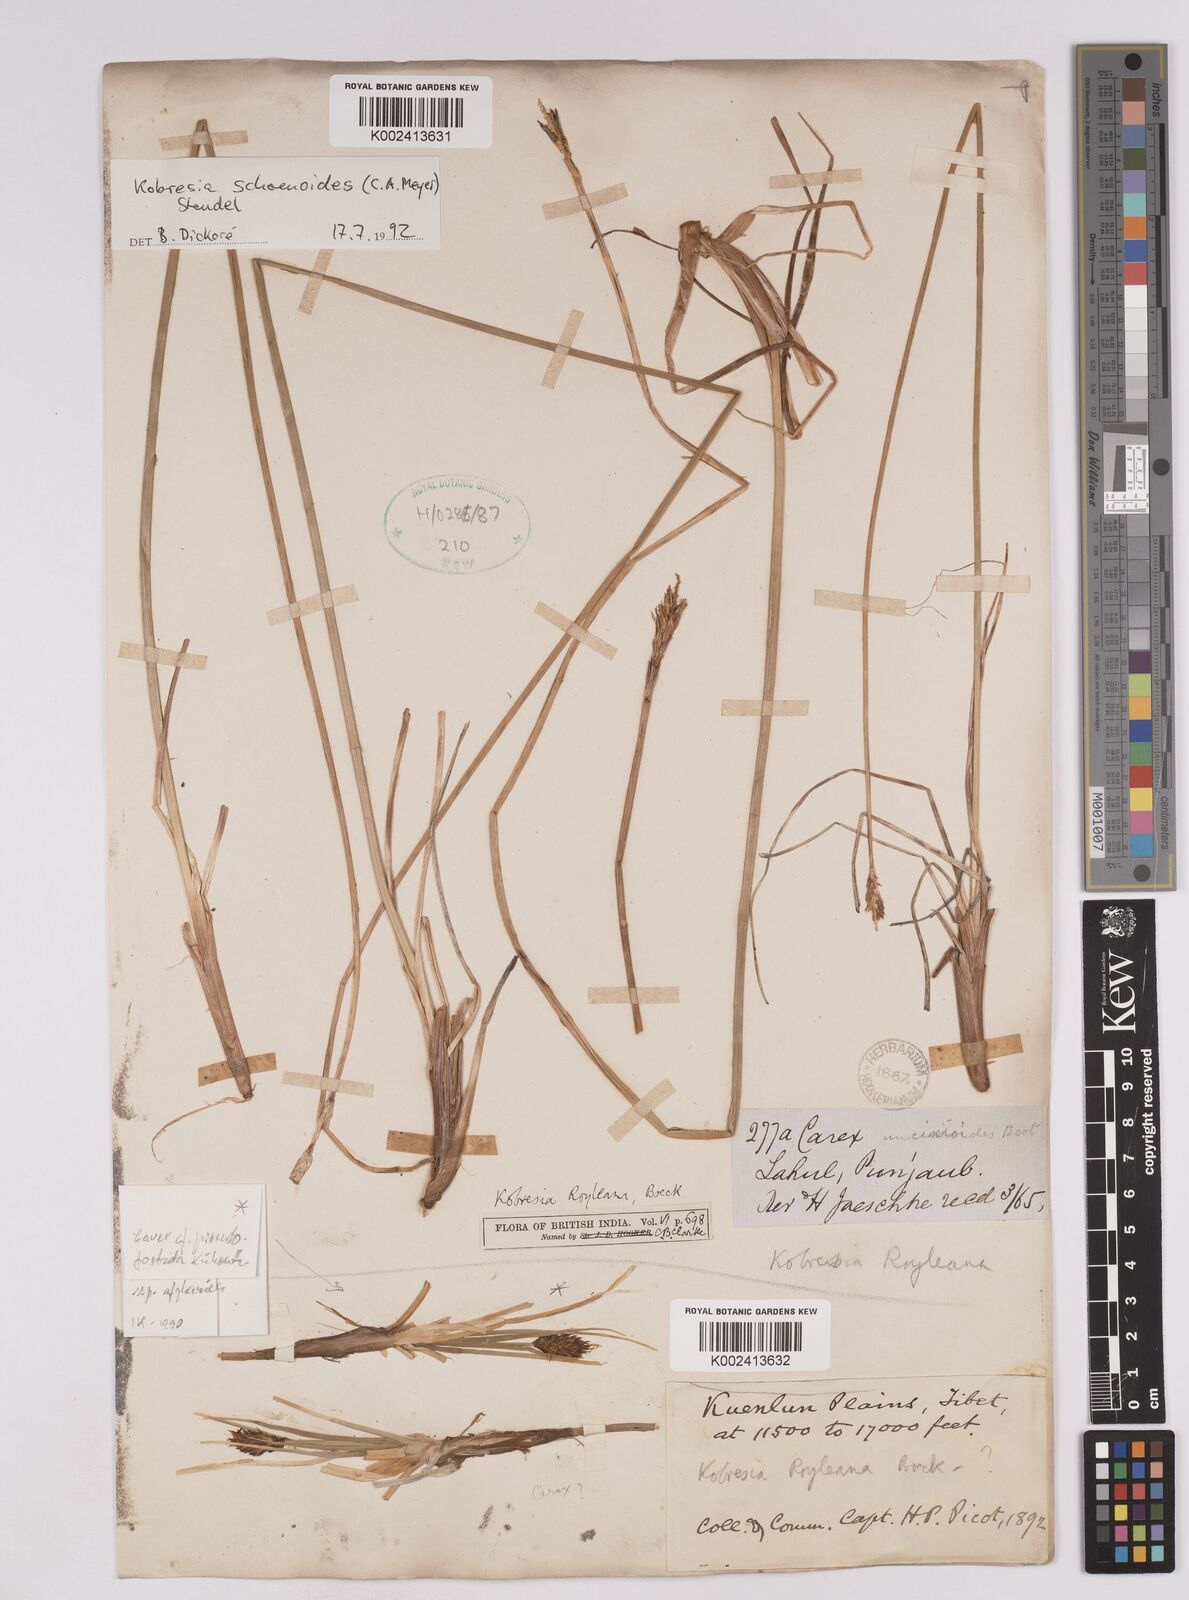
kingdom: Plantae
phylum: Tracheophyta
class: Liliopsida
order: Poales
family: Cyperaceae
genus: Carex
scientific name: Carex kokanica
